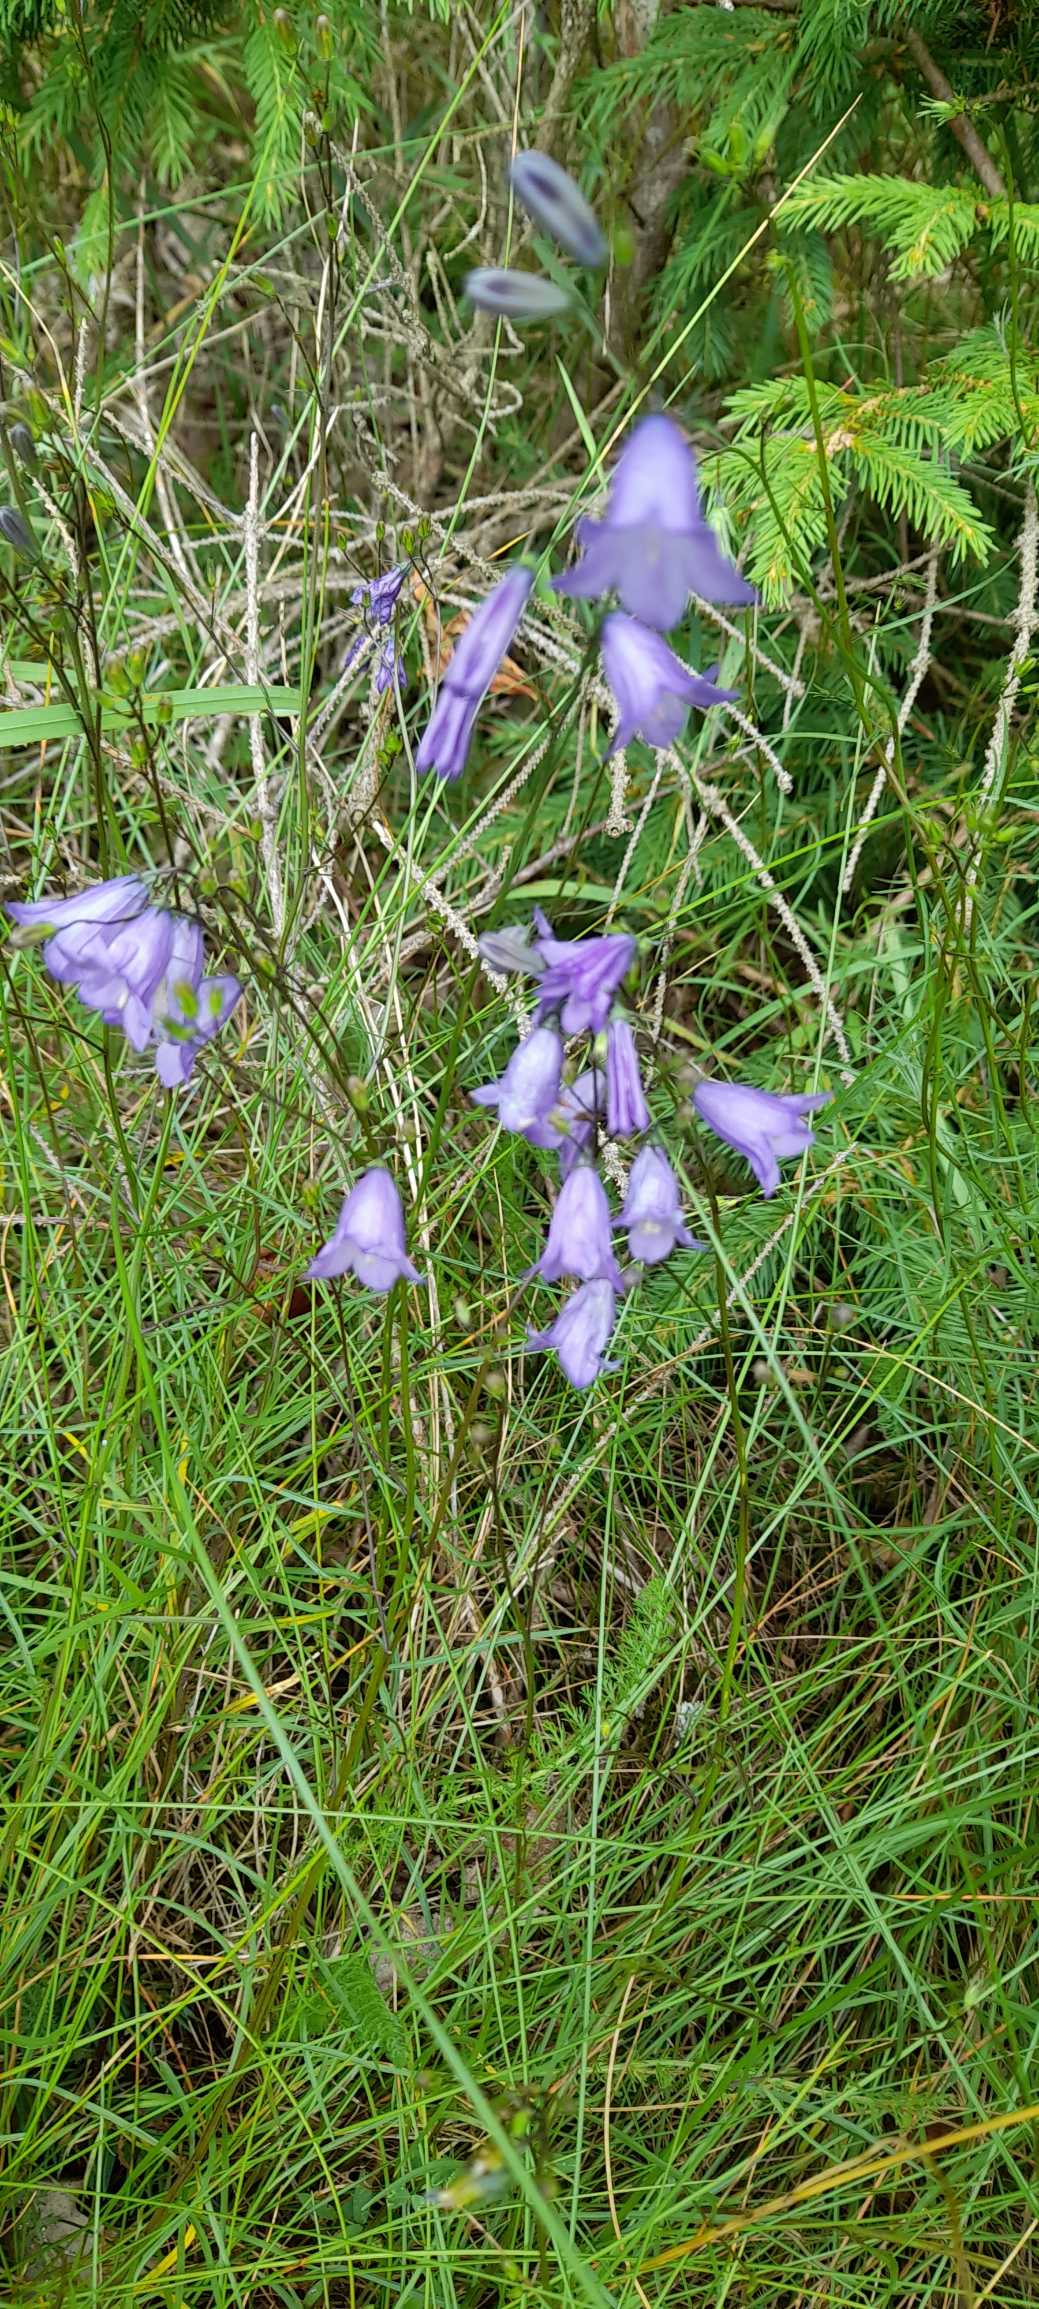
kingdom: Plantae
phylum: Tracheophyta
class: Magnoliopsida
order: Asterales
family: Campanulaceae
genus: Campanula
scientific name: Campanula rotundifolia
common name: Liden klokke
